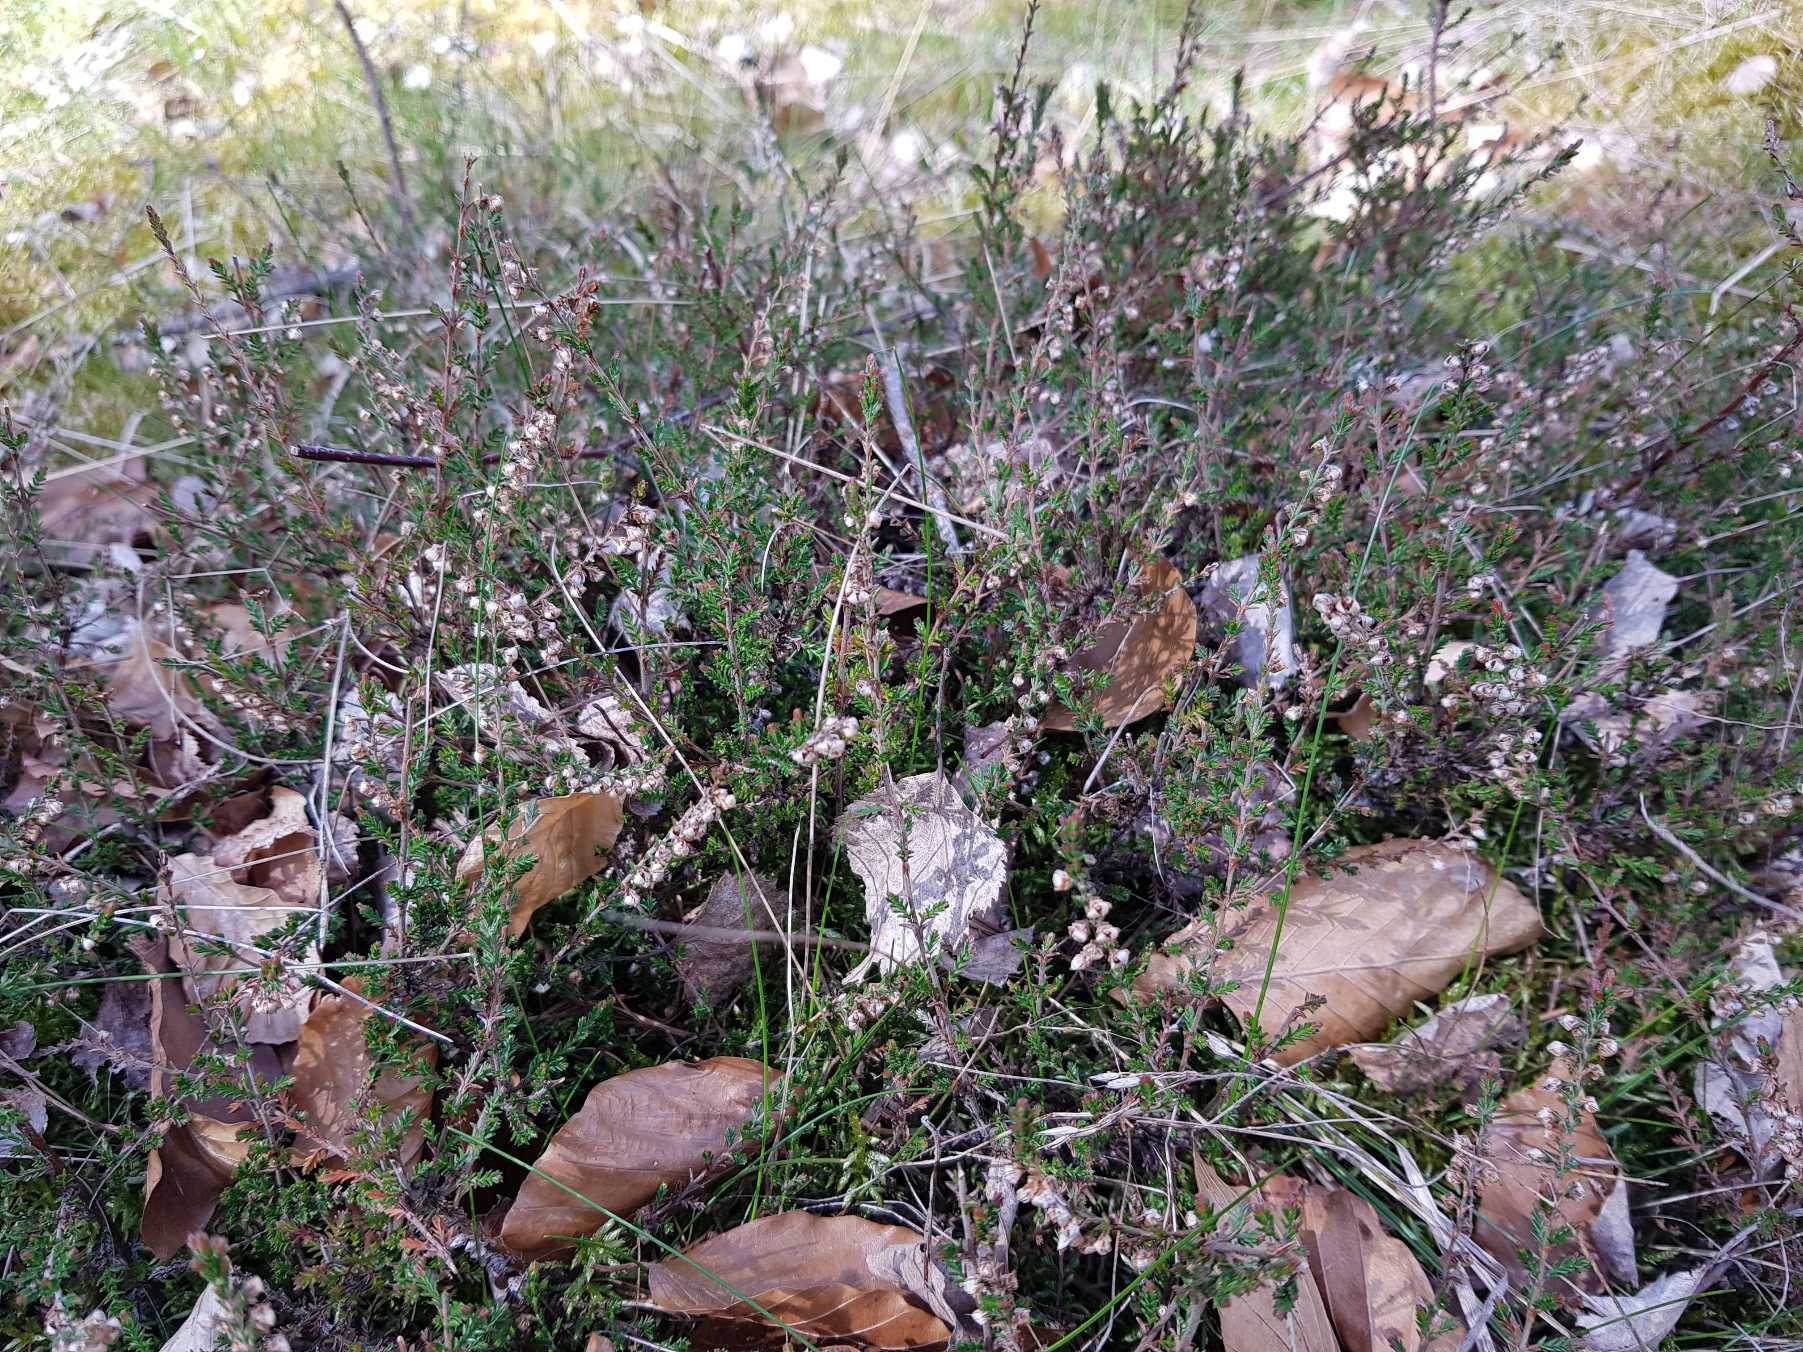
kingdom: Plantae
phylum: Tracheophyta
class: Magnoliopsida
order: Ericales
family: Ericaceae
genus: Calluna
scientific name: Calluna vulgaris
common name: Hedelyng
